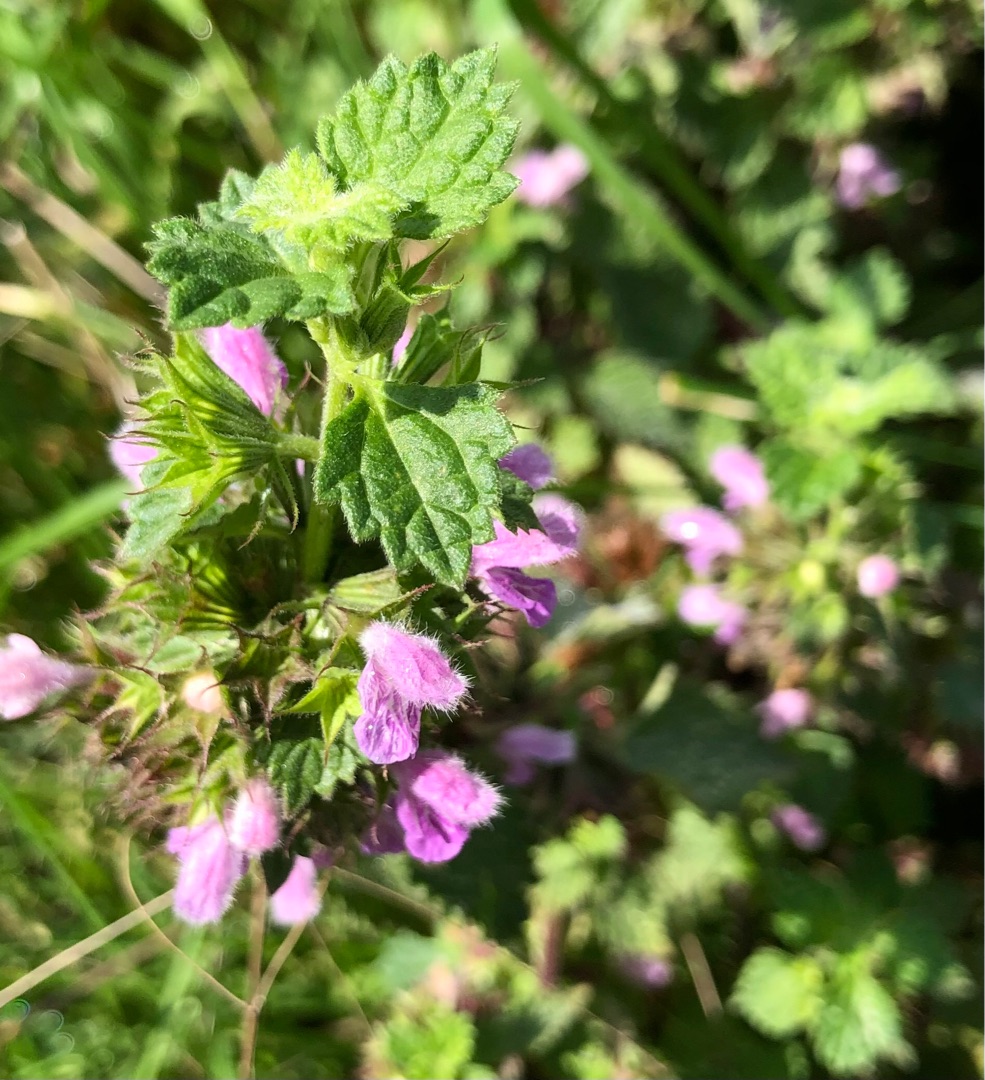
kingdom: Plantae
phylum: Tracheophyta
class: Magnoliopsida
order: Lamiales
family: Lamiaceae
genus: Ballota
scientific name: Ballota nigra
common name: Tandbæger
